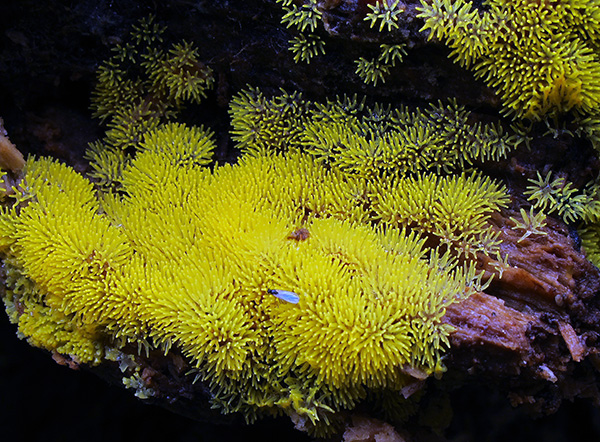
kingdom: Protozoa
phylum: Mycetozoa
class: Protosteliomycetes
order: Ceratiomyxales
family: Ceratiomyxaceae
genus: Ceratiomyxa
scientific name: Ceratiomyxa fruticulosa
